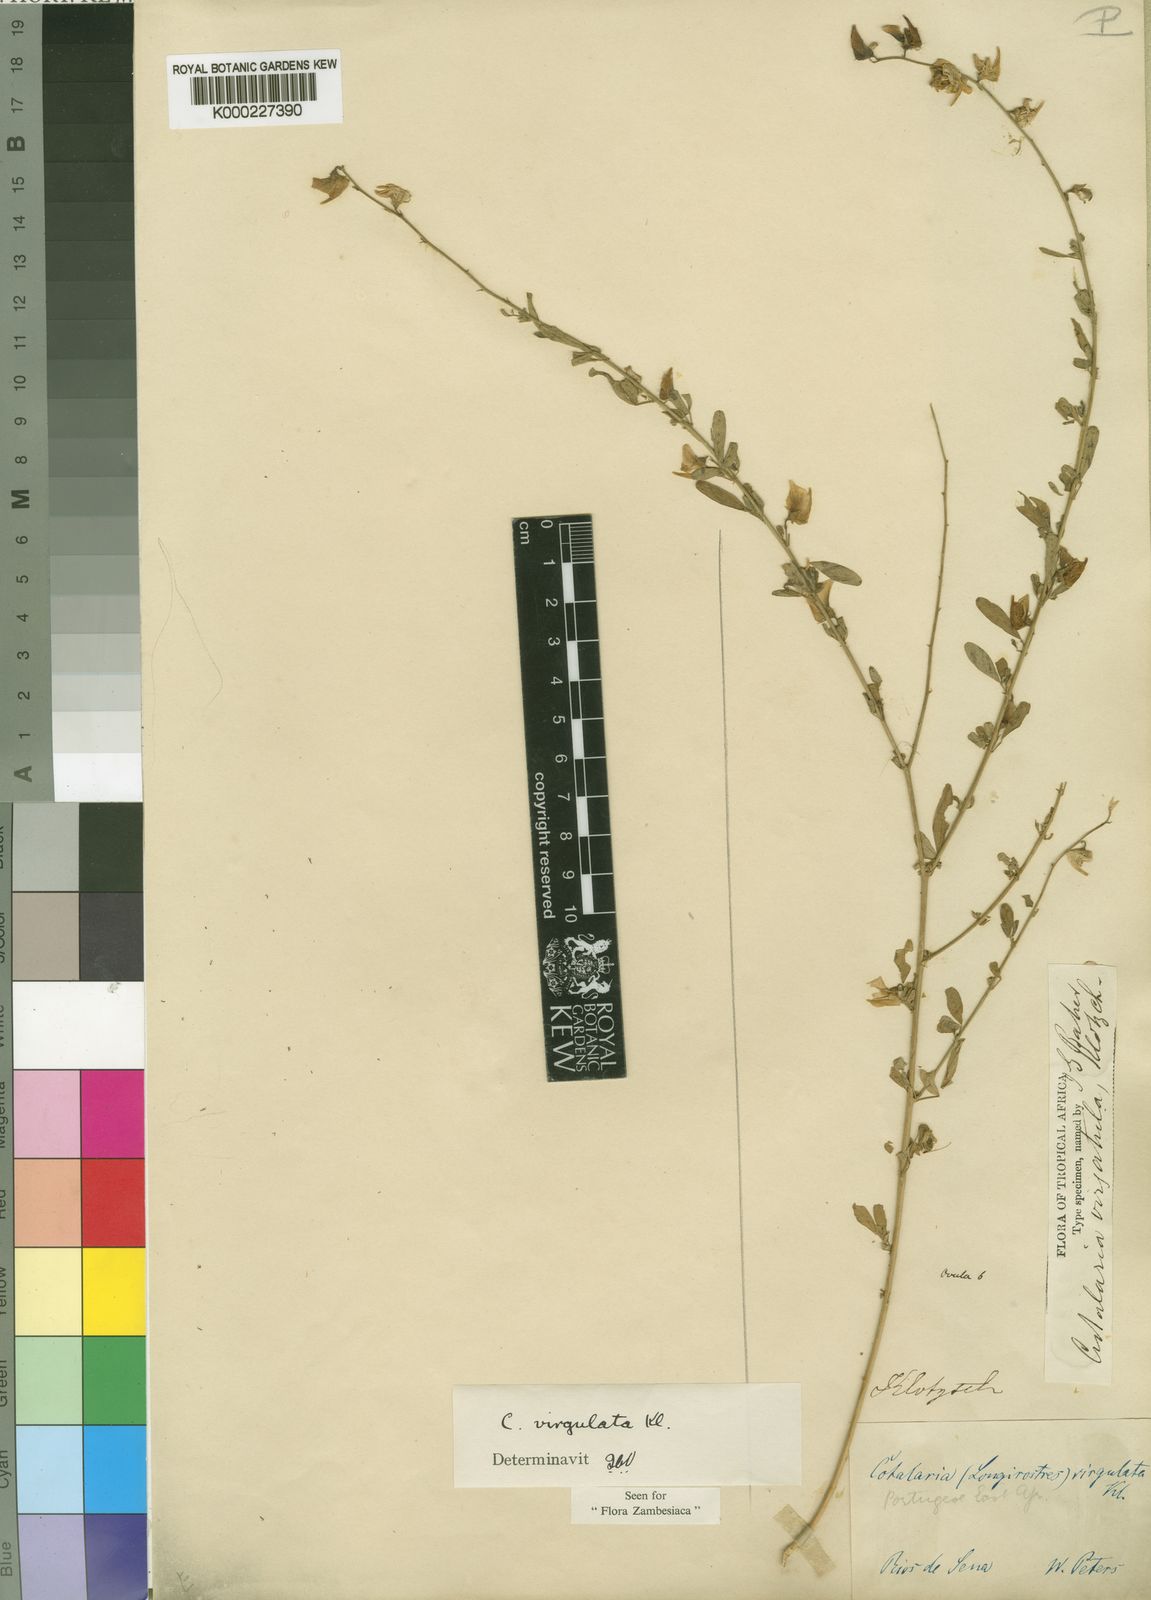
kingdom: Plantae
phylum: Tracheophyta
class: Magnoliopsida
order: Fabales
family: Fabaceae
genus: Crotalaria
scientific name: Crotalaria virgulata
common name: Thicket rattlebox
